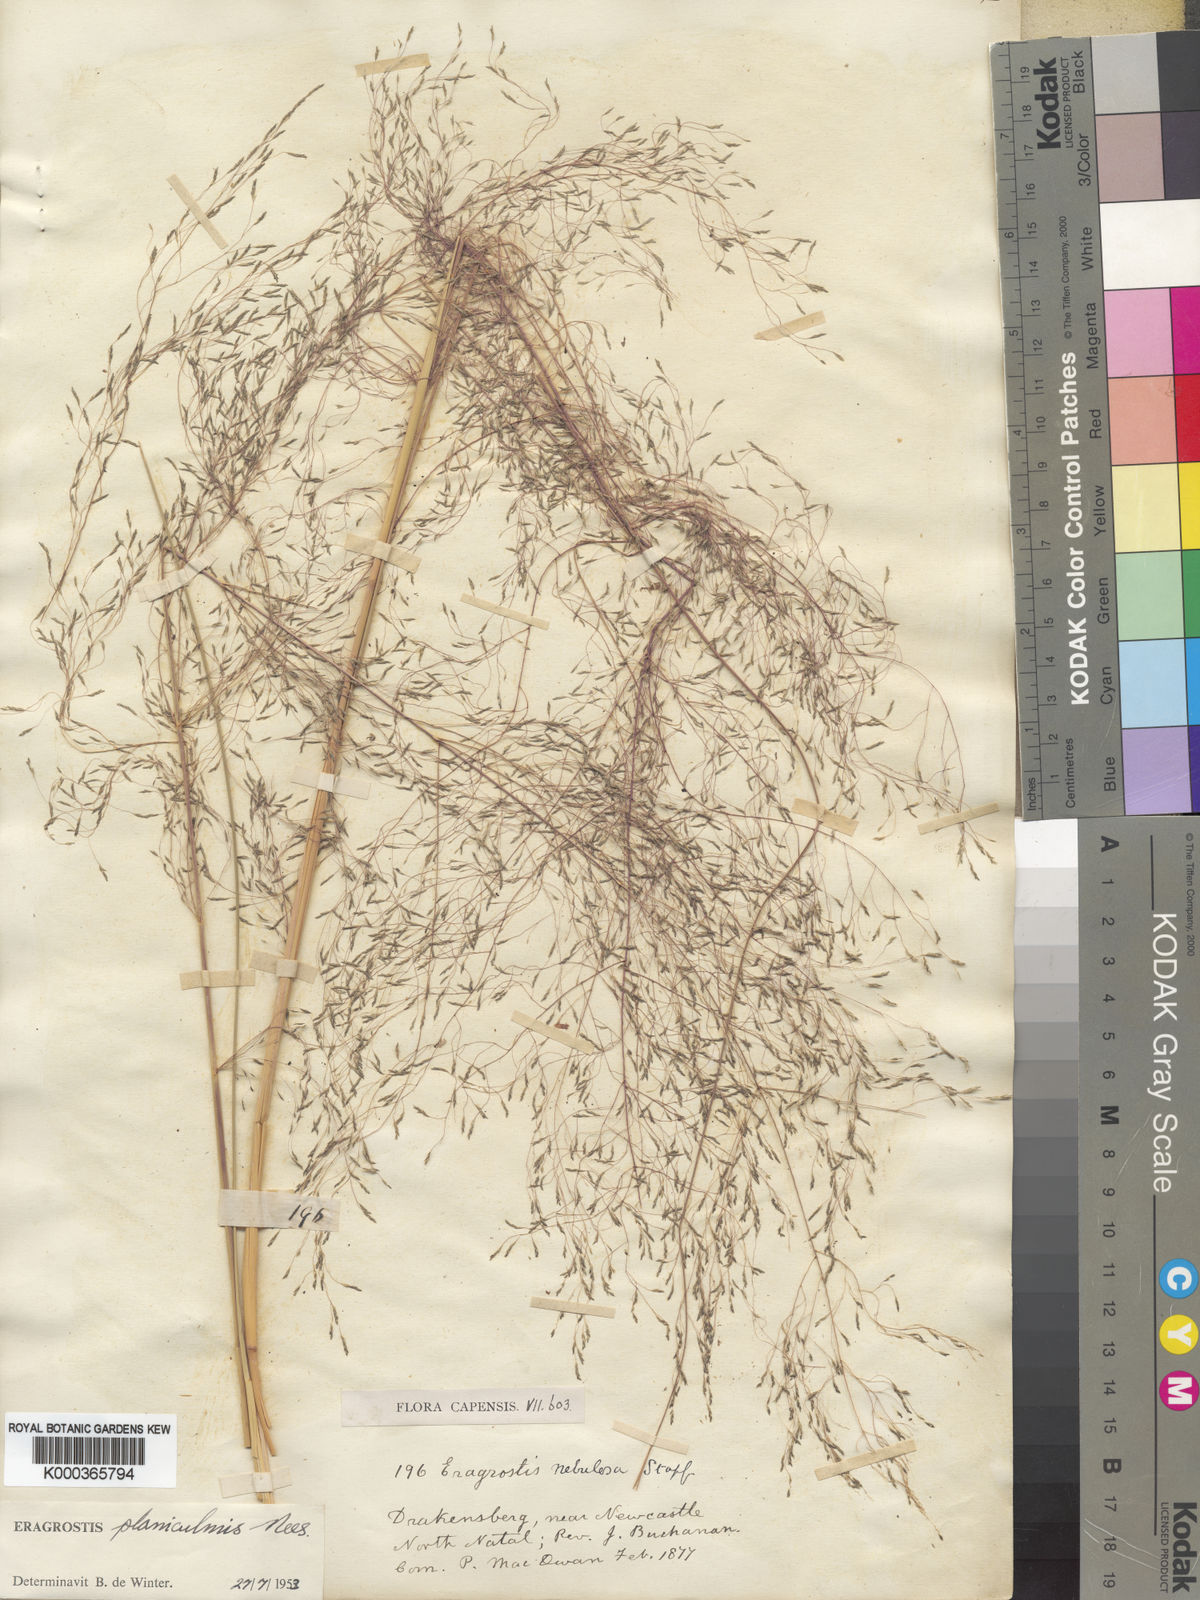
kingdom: Plantae
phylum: Tracheophyta
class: Liliopsida
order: Poales
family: Poaceae
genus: Eragrostis
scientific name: Eragrostis planiculmis
